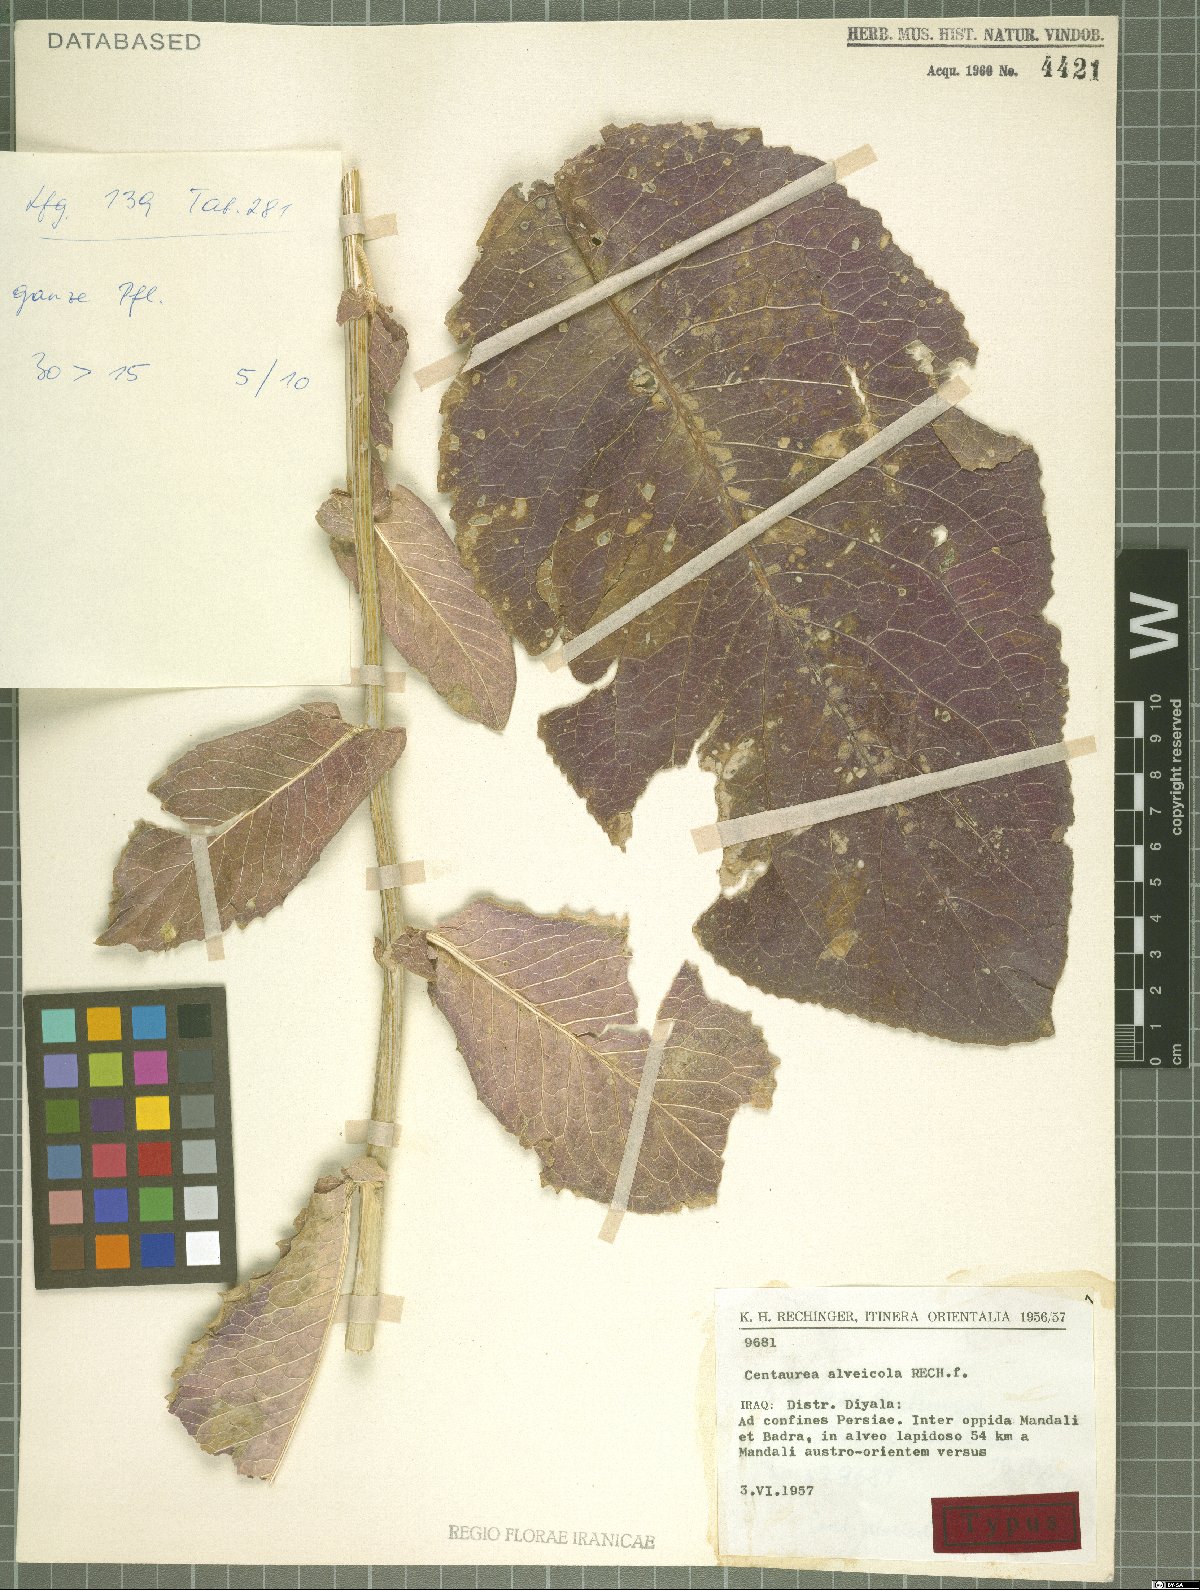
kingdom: Plantae
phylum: Tracheophyta
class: Magnoliopsida
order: Asterales
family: Asteraceae
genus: Centaurea
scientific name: Centaurea alveicola
